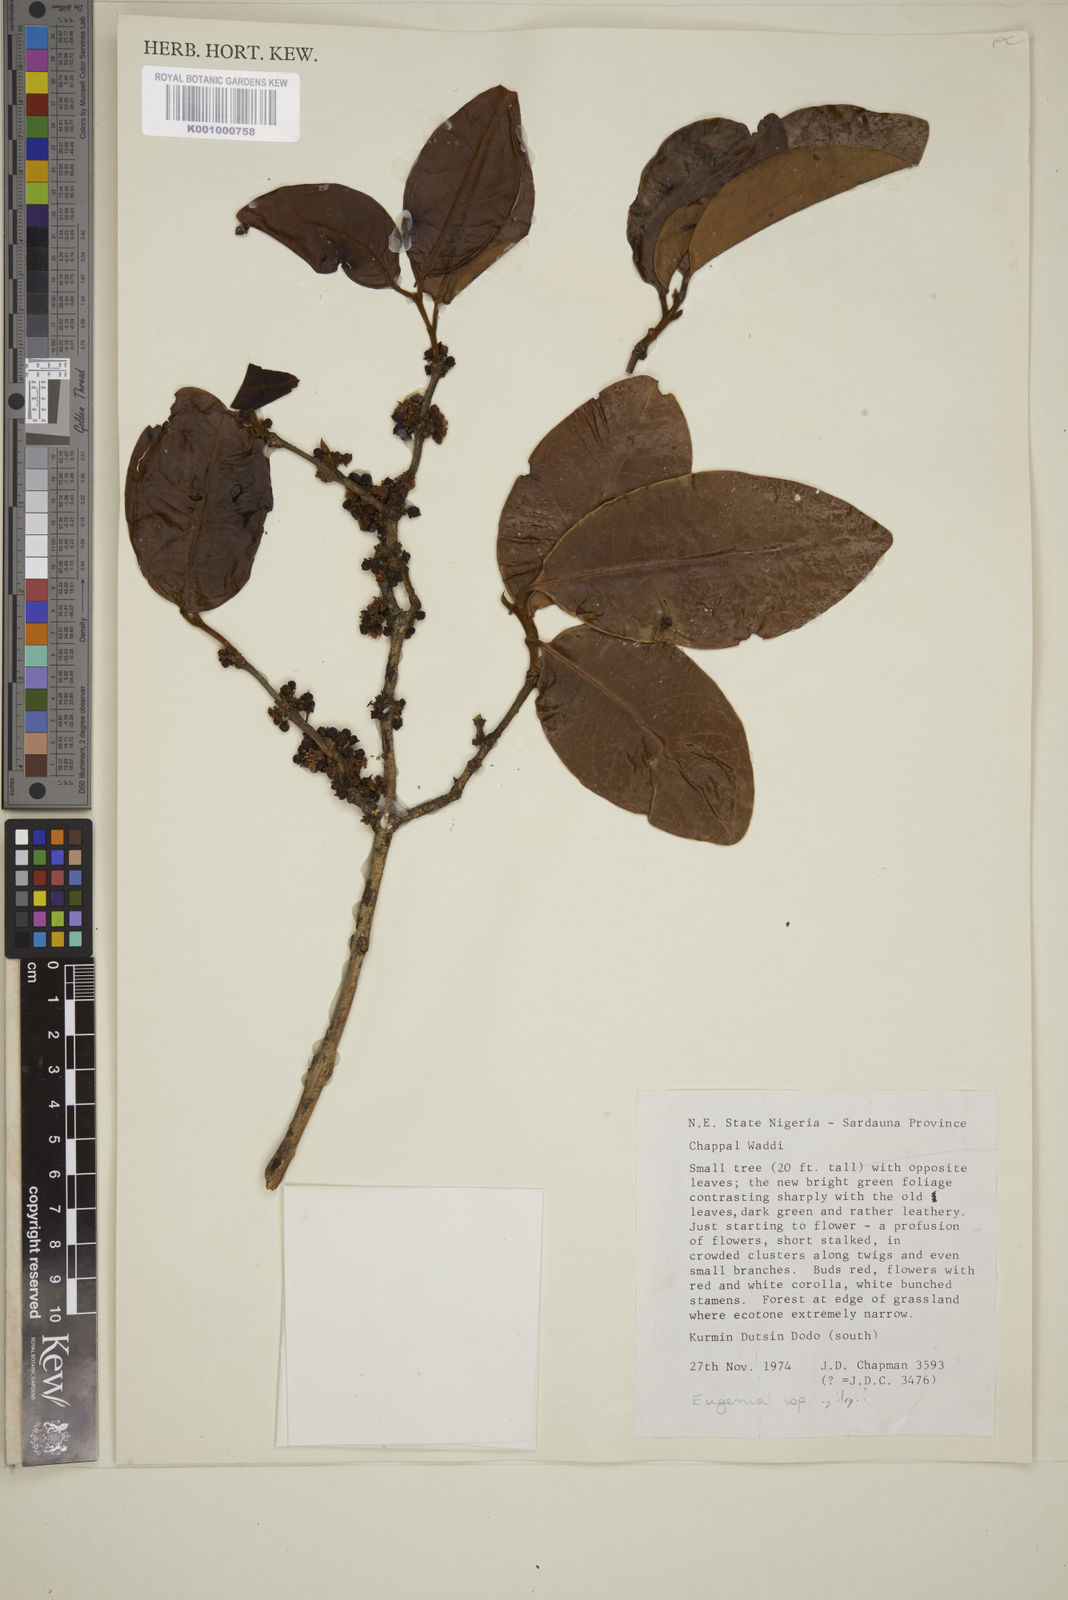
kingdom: Plantae
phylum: Tracheophyta
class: Magnoliopsida
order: Myrtales
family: Myrtaceae
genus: Eugenia
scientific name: Eugenia gilgii
